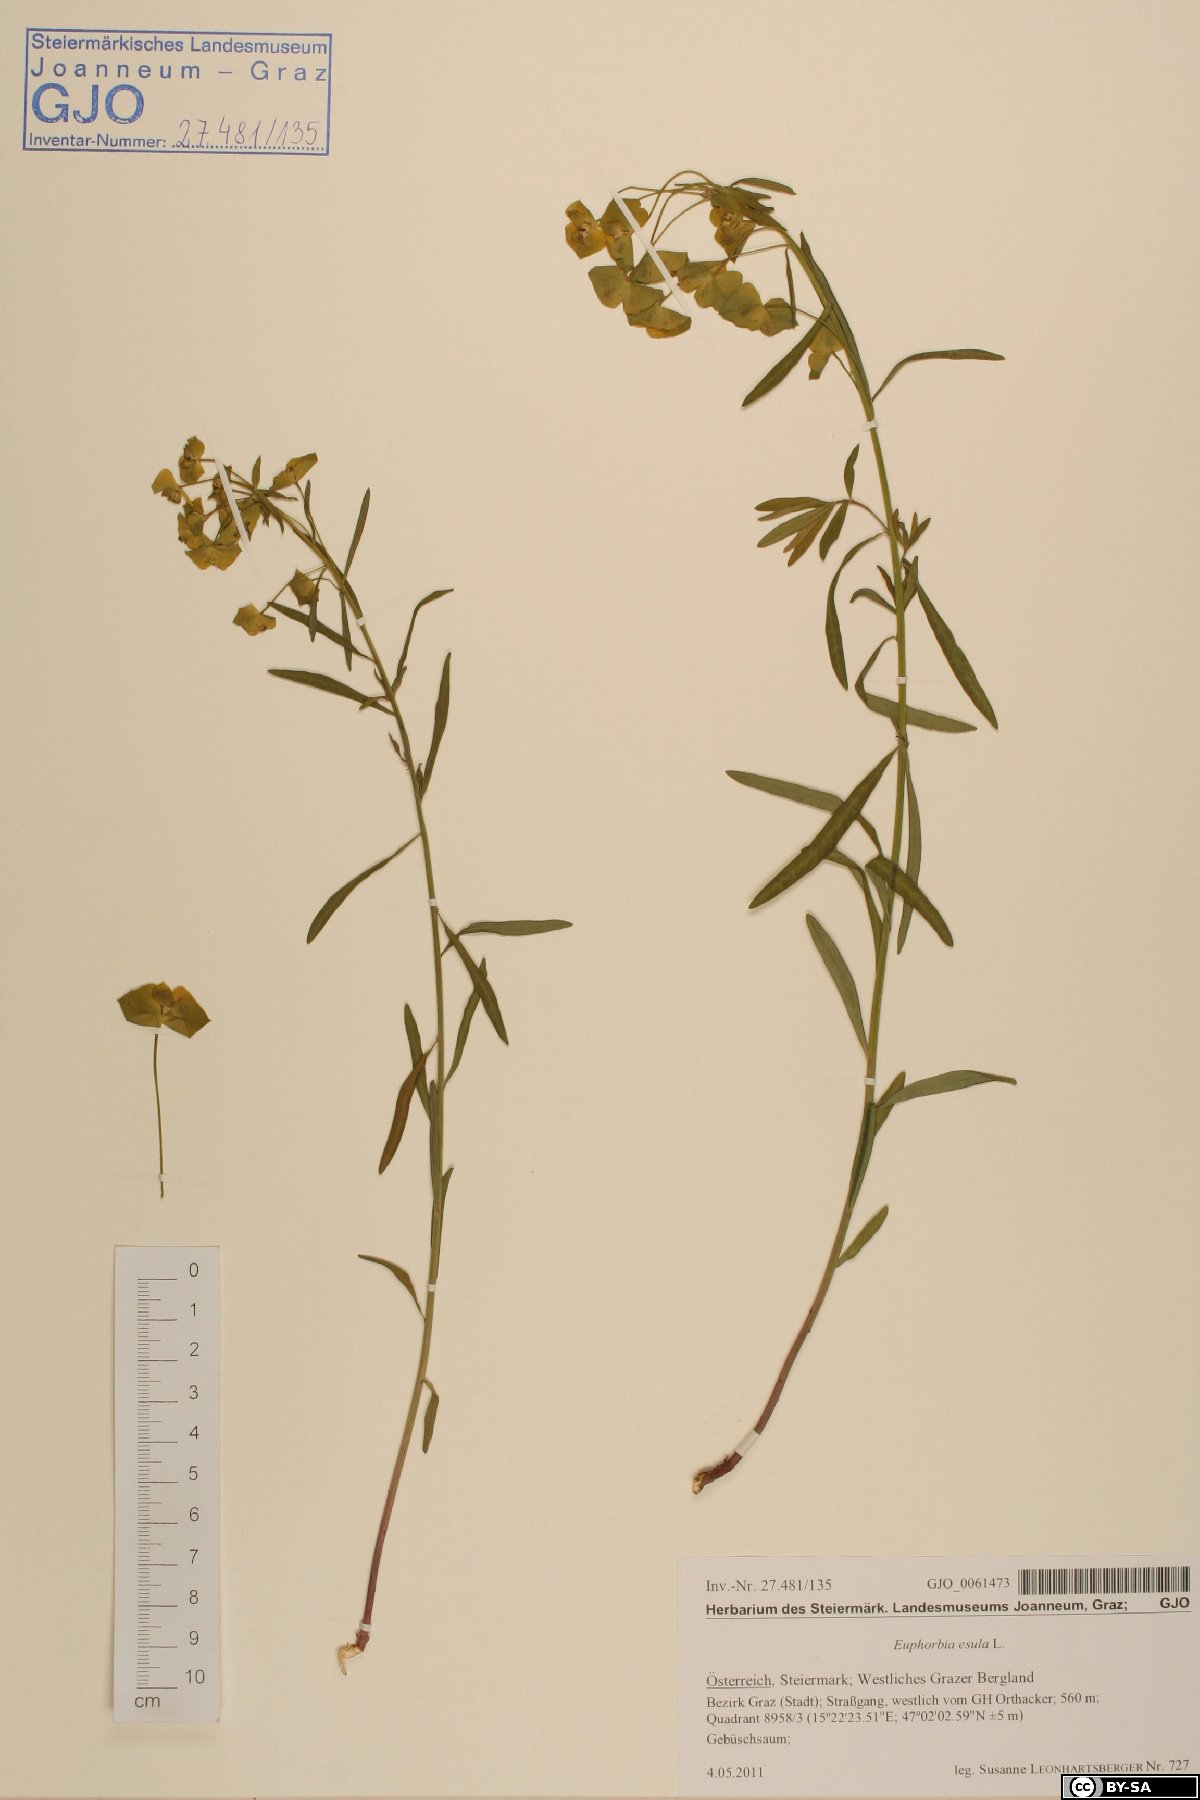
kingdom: Plantae
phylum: Tracheophyta
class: Magnoliopsida
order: Malpighiales
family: Euphorbiaceae
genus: Euphorbia
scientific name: Euphorbia esula
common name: Leafy spurge
